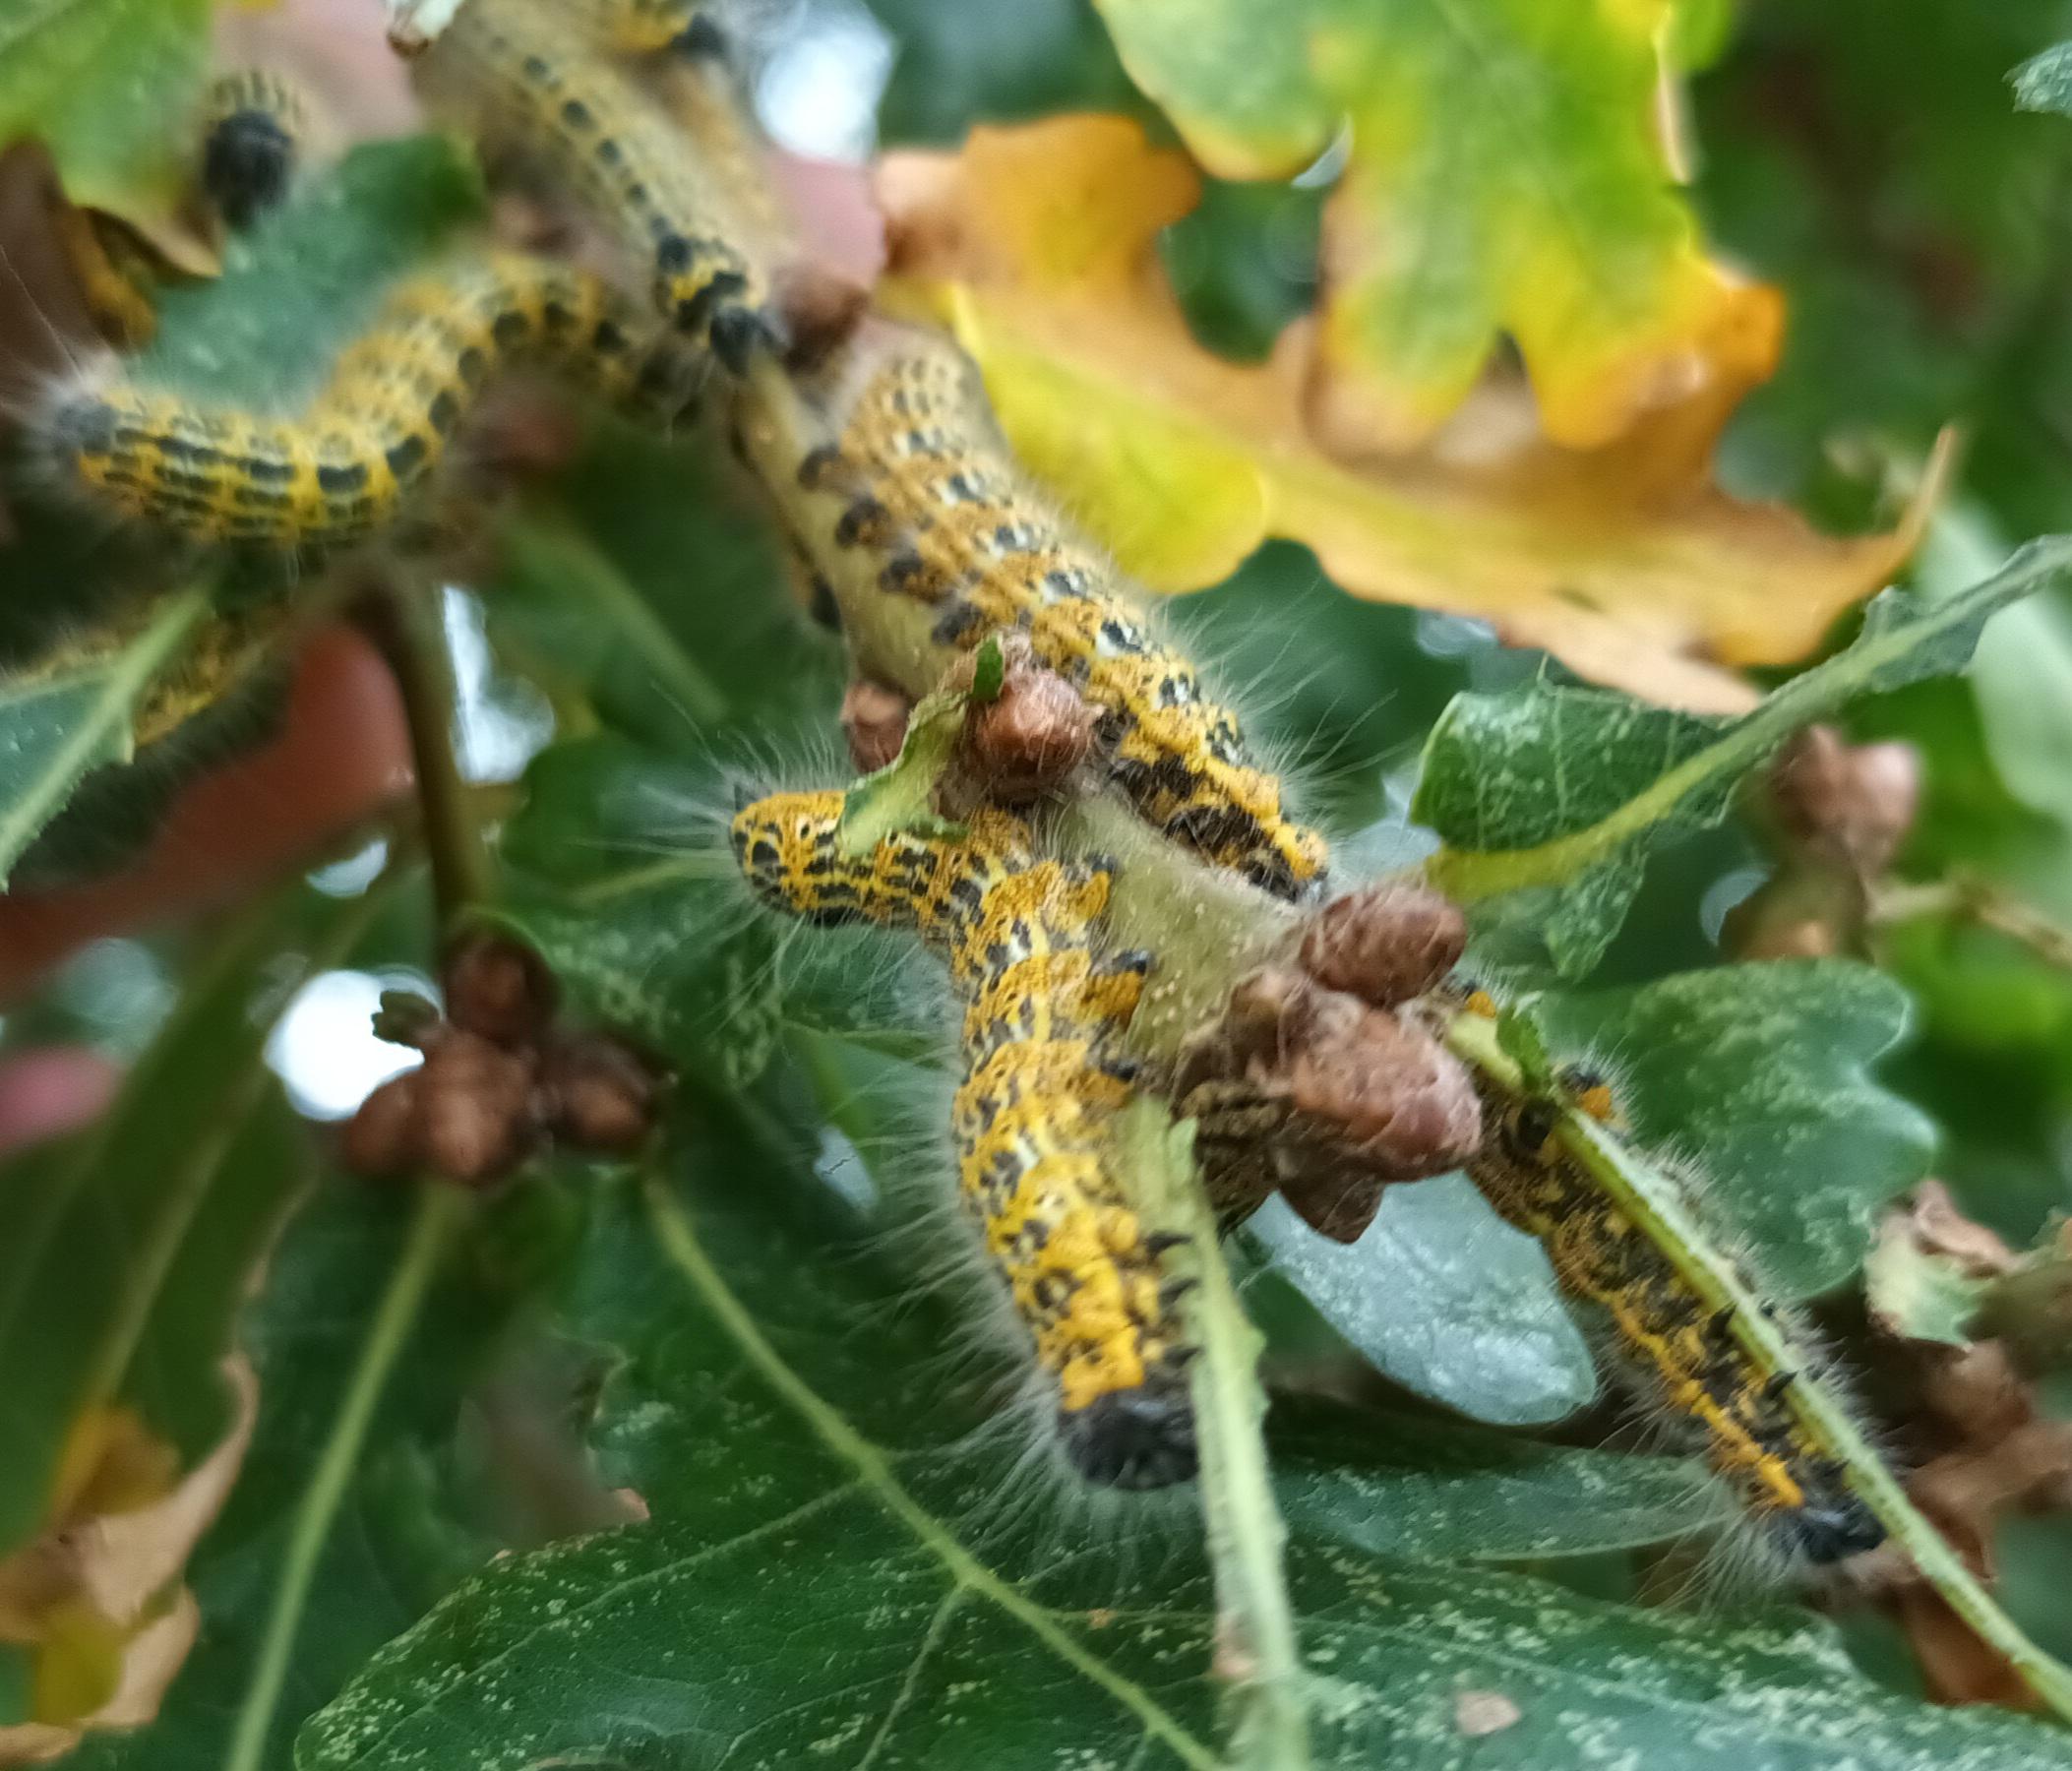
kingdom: Animalia
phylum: Arthropoda
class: Insecta
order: Lepidoptera
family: Notodontidae
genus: Phalera
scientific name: Phalera bucephala
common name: Måneplet
